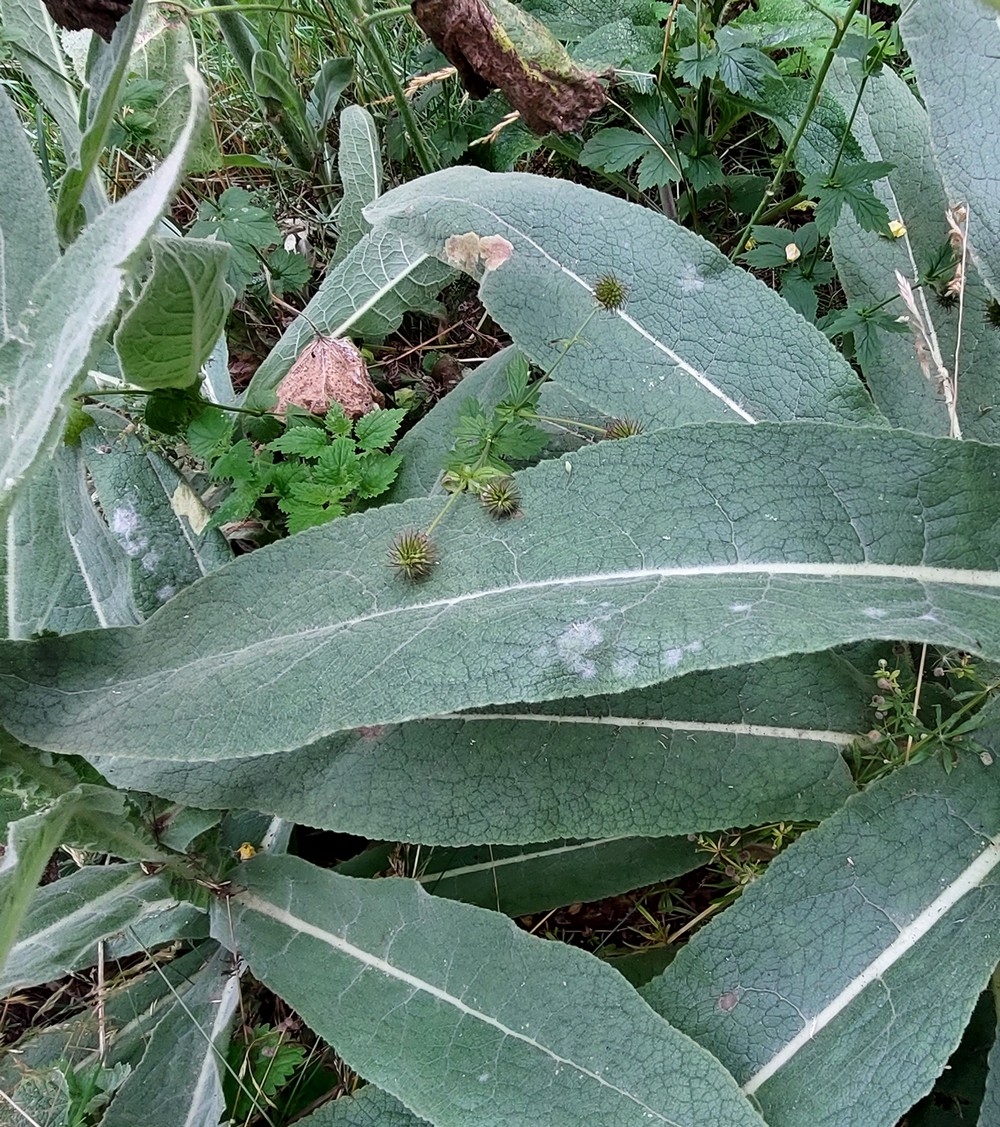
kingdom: Fungi
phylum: Ascomycota
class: Leotiomycetes
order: Helotiales
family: Erysiphaceae
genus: Golovinomyces
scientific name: Golovinomyces verbasci
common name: kongelys-meldug
